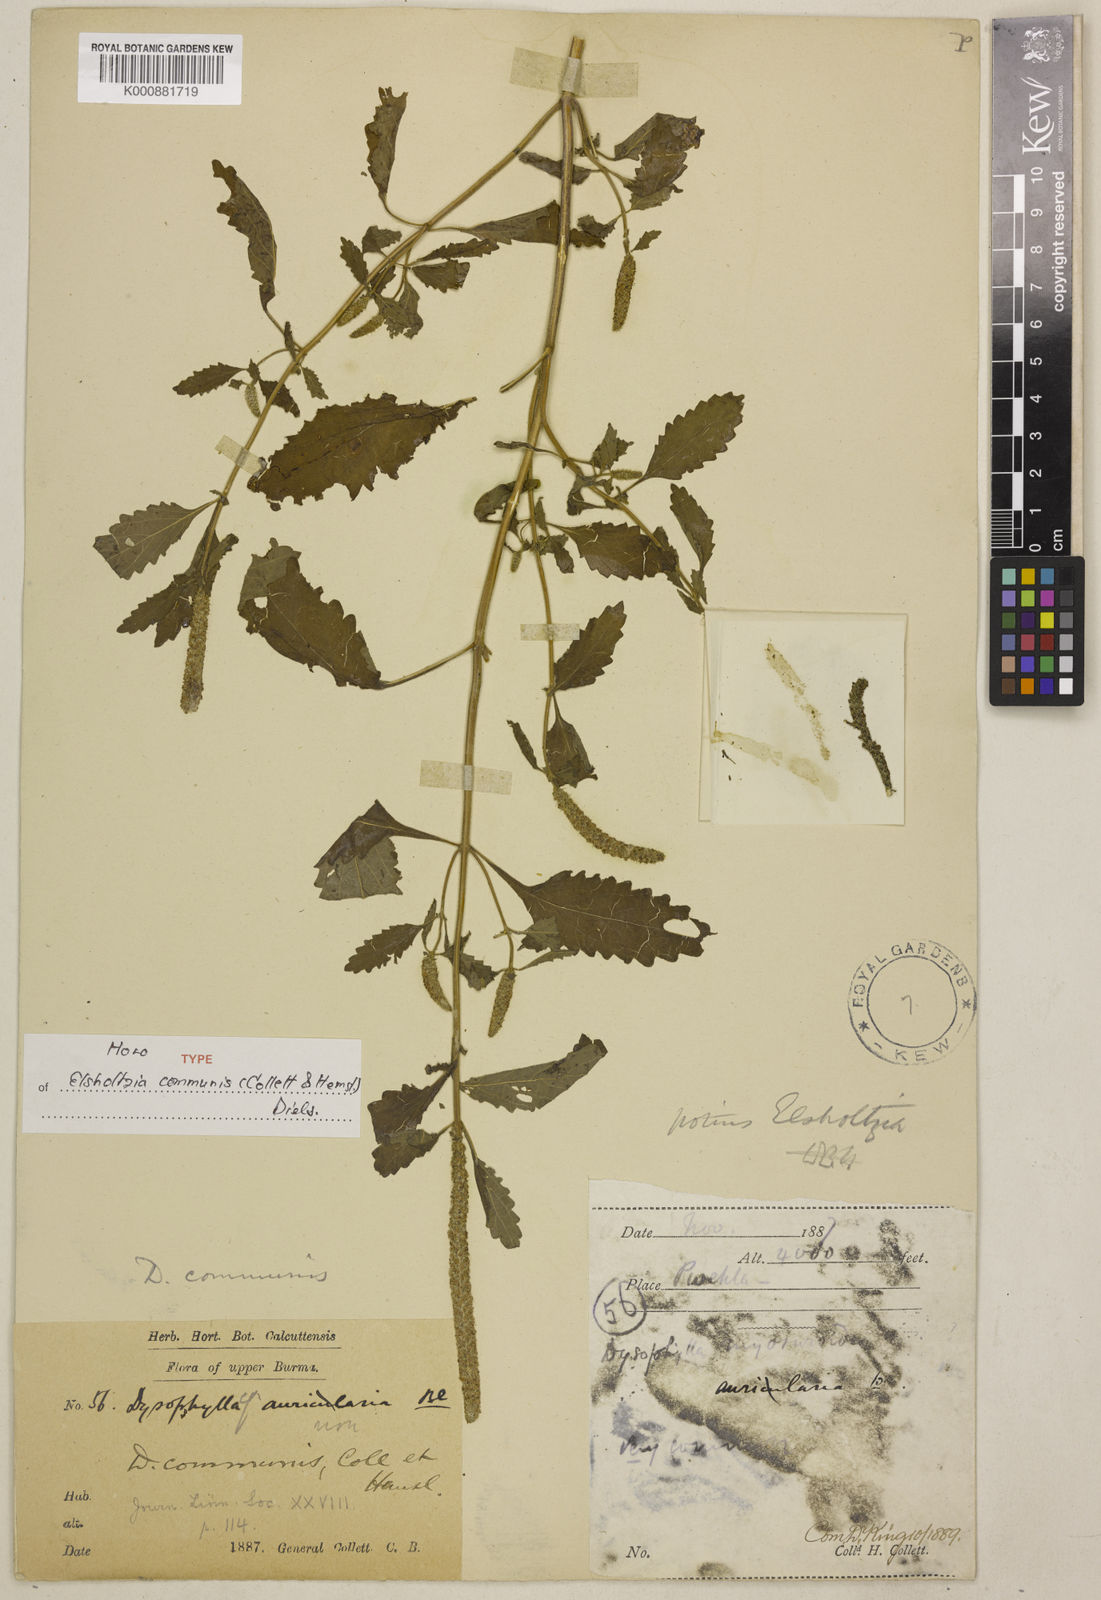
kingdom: Plantae
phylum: Tracheophyta
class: Magnoliopsida
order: Lamiales
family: Lamiaceae
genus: Elsholtzia
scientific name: Elsholtzia communis
